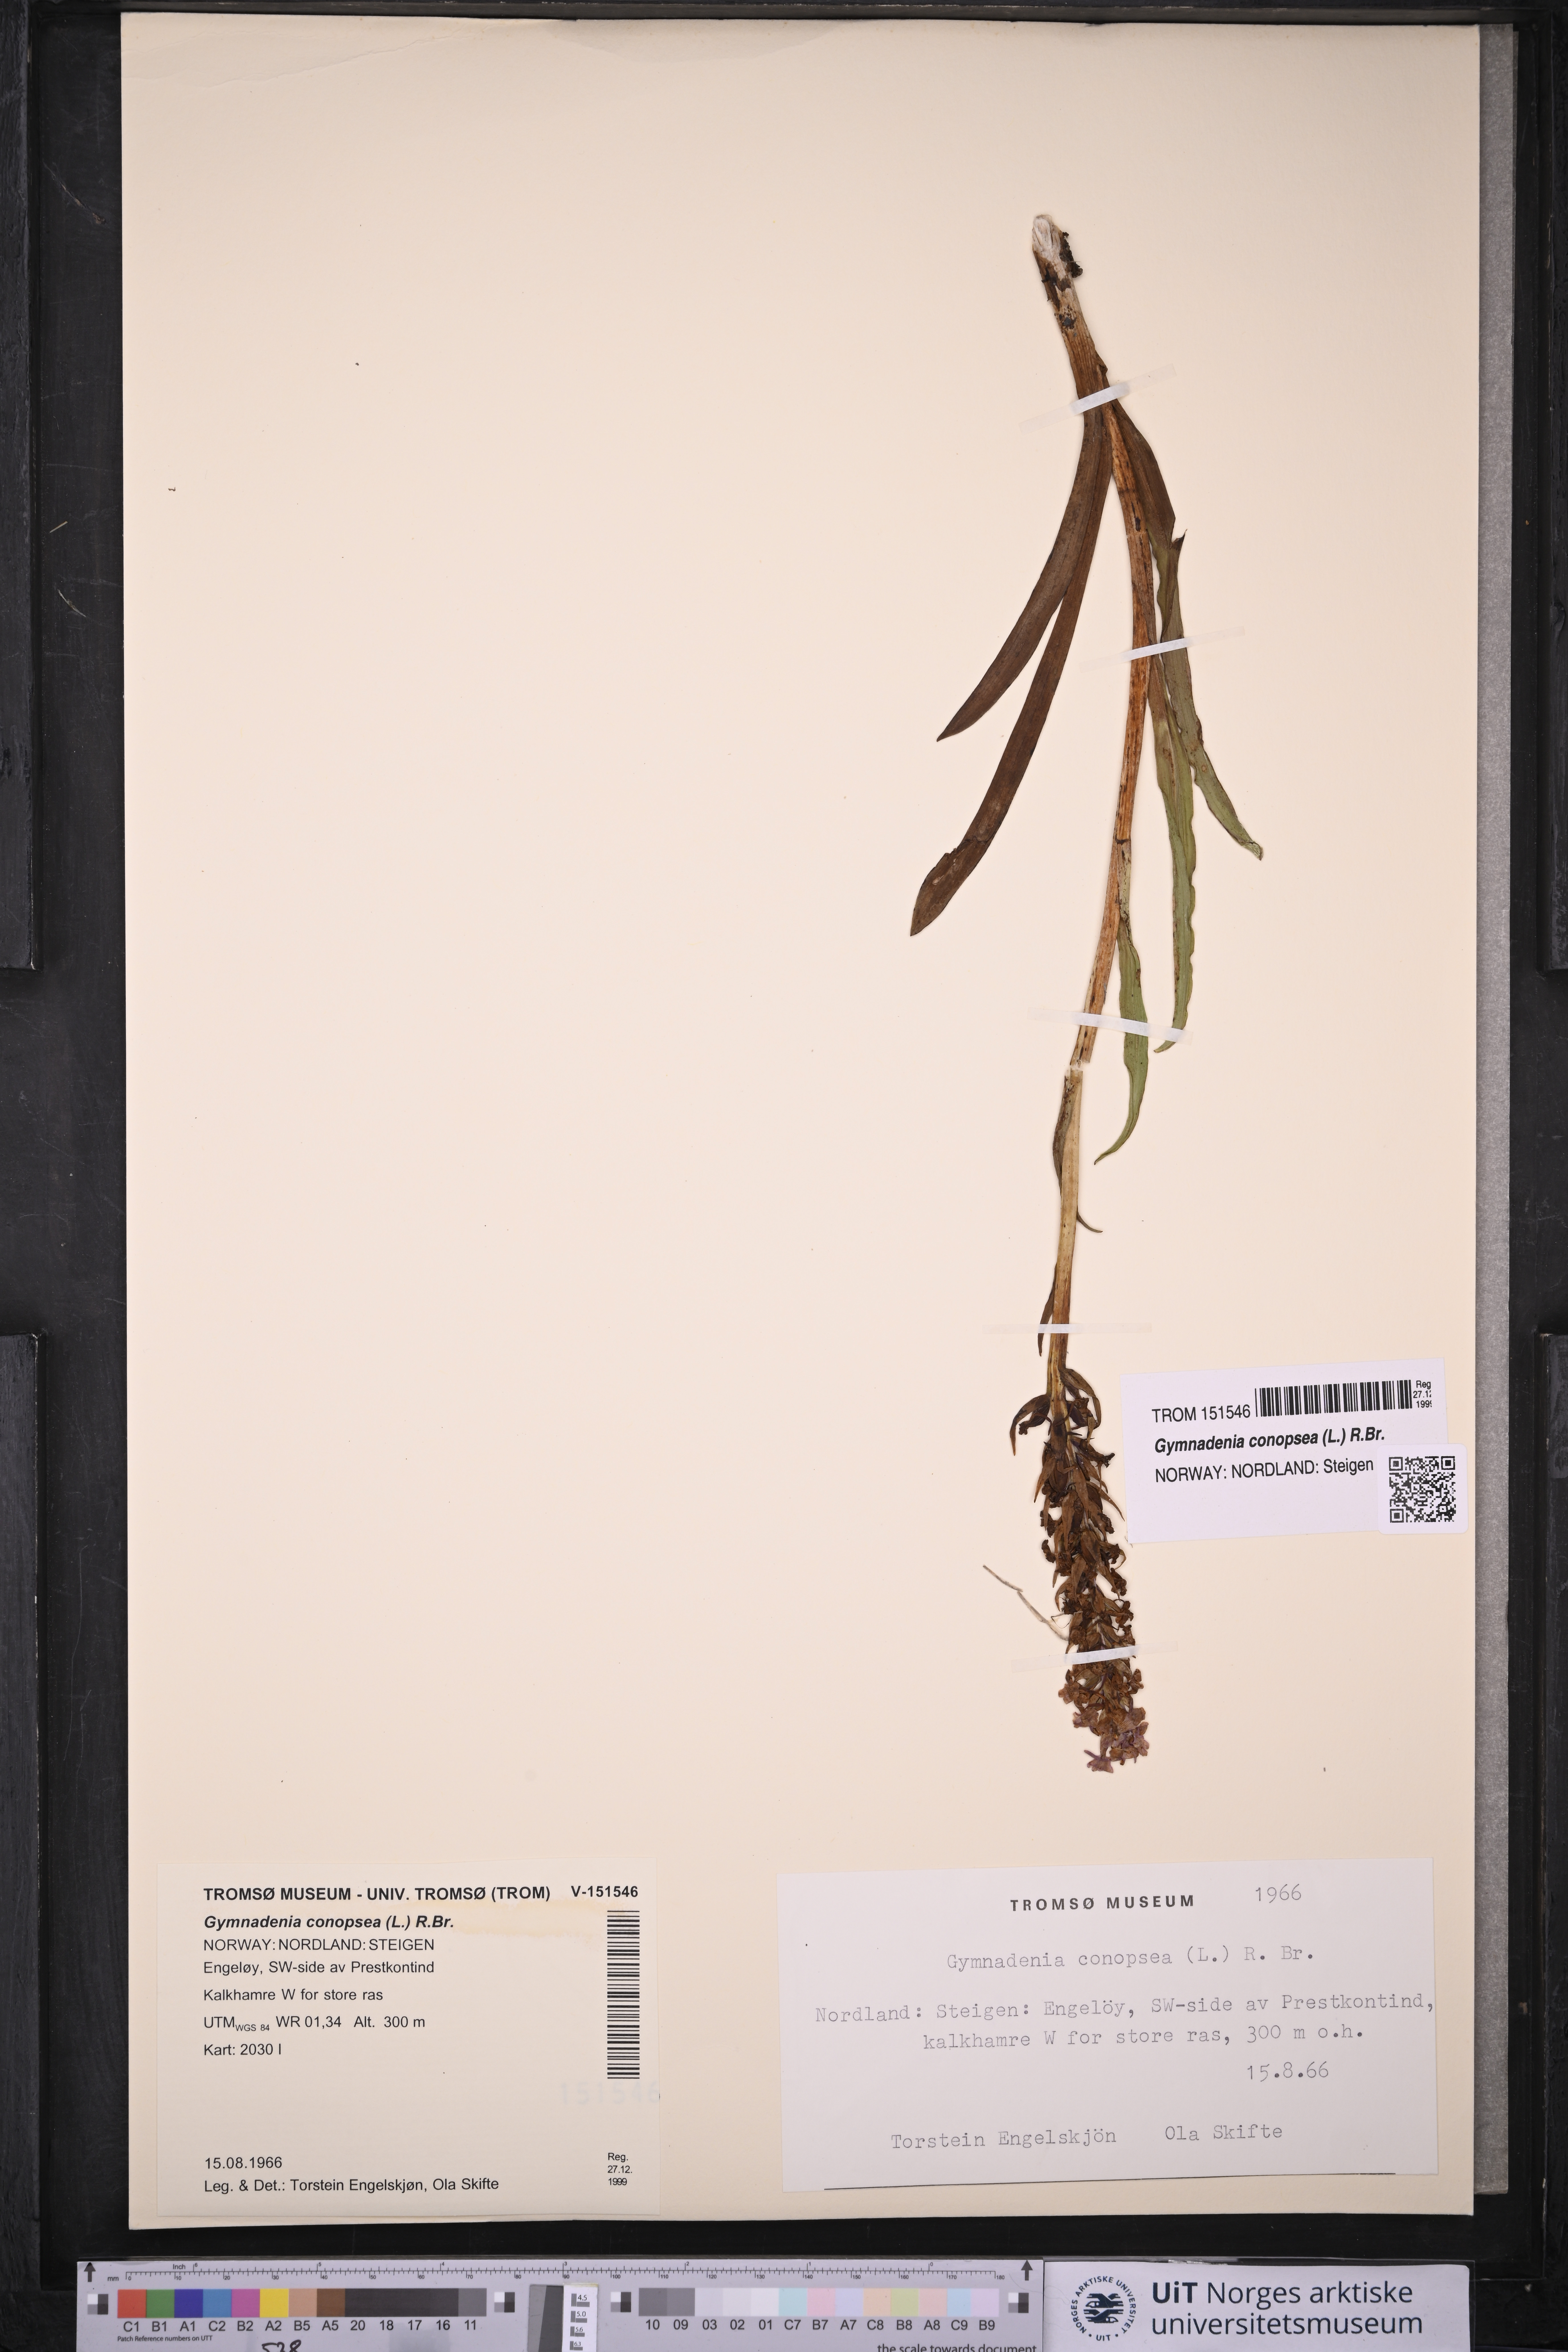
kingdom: Plantae
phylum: Tracheophyta
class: Liliopsida
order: Asparagales
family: Orchidaceae
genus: Gymnadenia
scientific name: Gymnadenia conopsea
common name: Fragrant orchid
